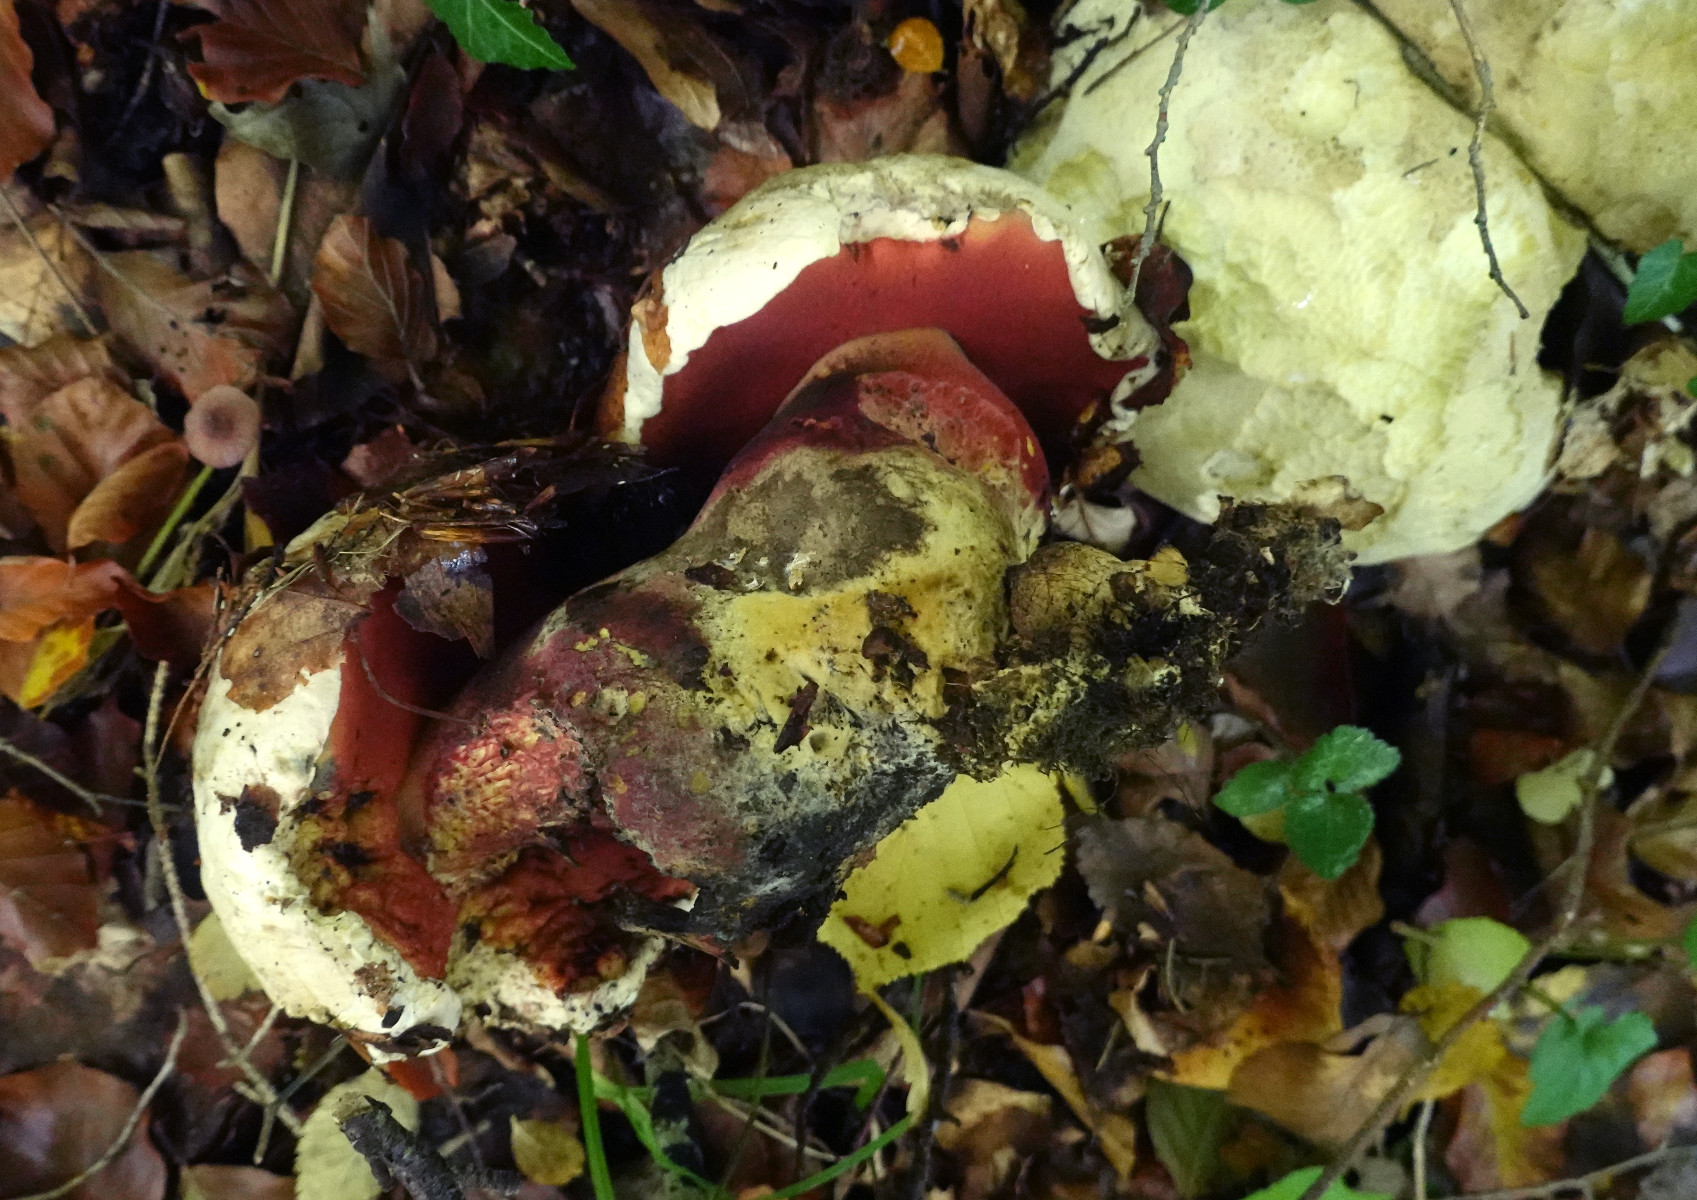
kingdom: Fungi
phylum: Basidiomycota
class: Agaricomycetes
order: Boletales
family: Boletaceae
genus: Rubroboletus
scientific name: Rubroboletus satanas
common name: Satans rørhat
